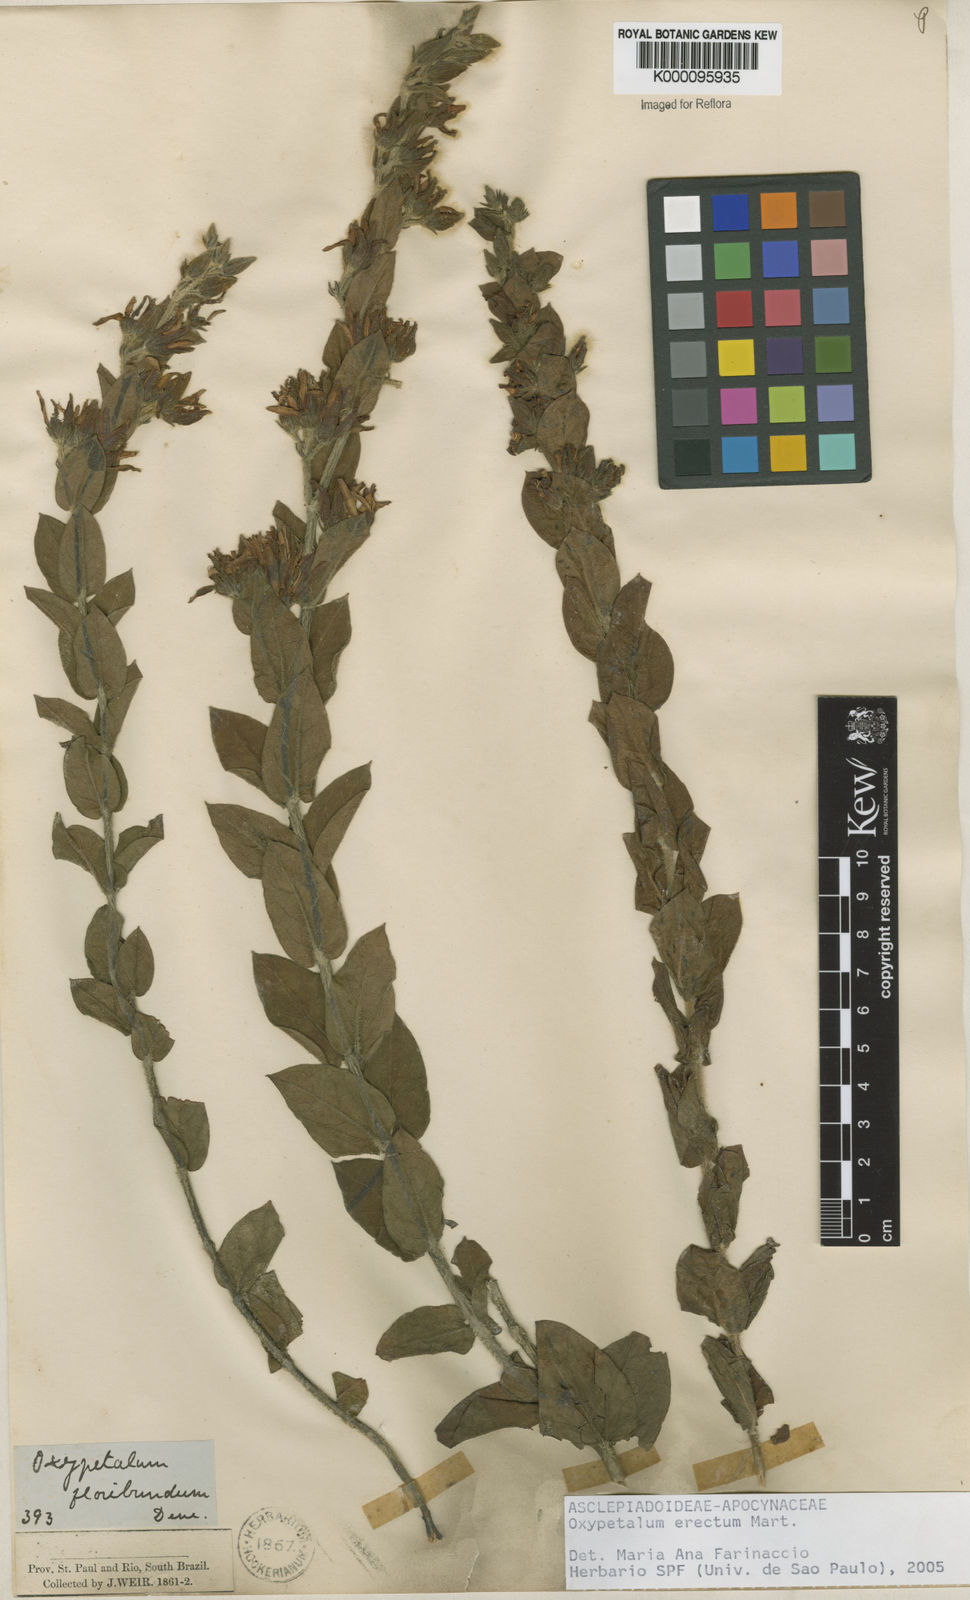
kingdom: Plantae
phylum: Tracheophyta
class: Magnoliopsida
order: Gentianales
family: Apocynaceae
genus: Oxypetalum
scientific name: Oxypetalum erectum
